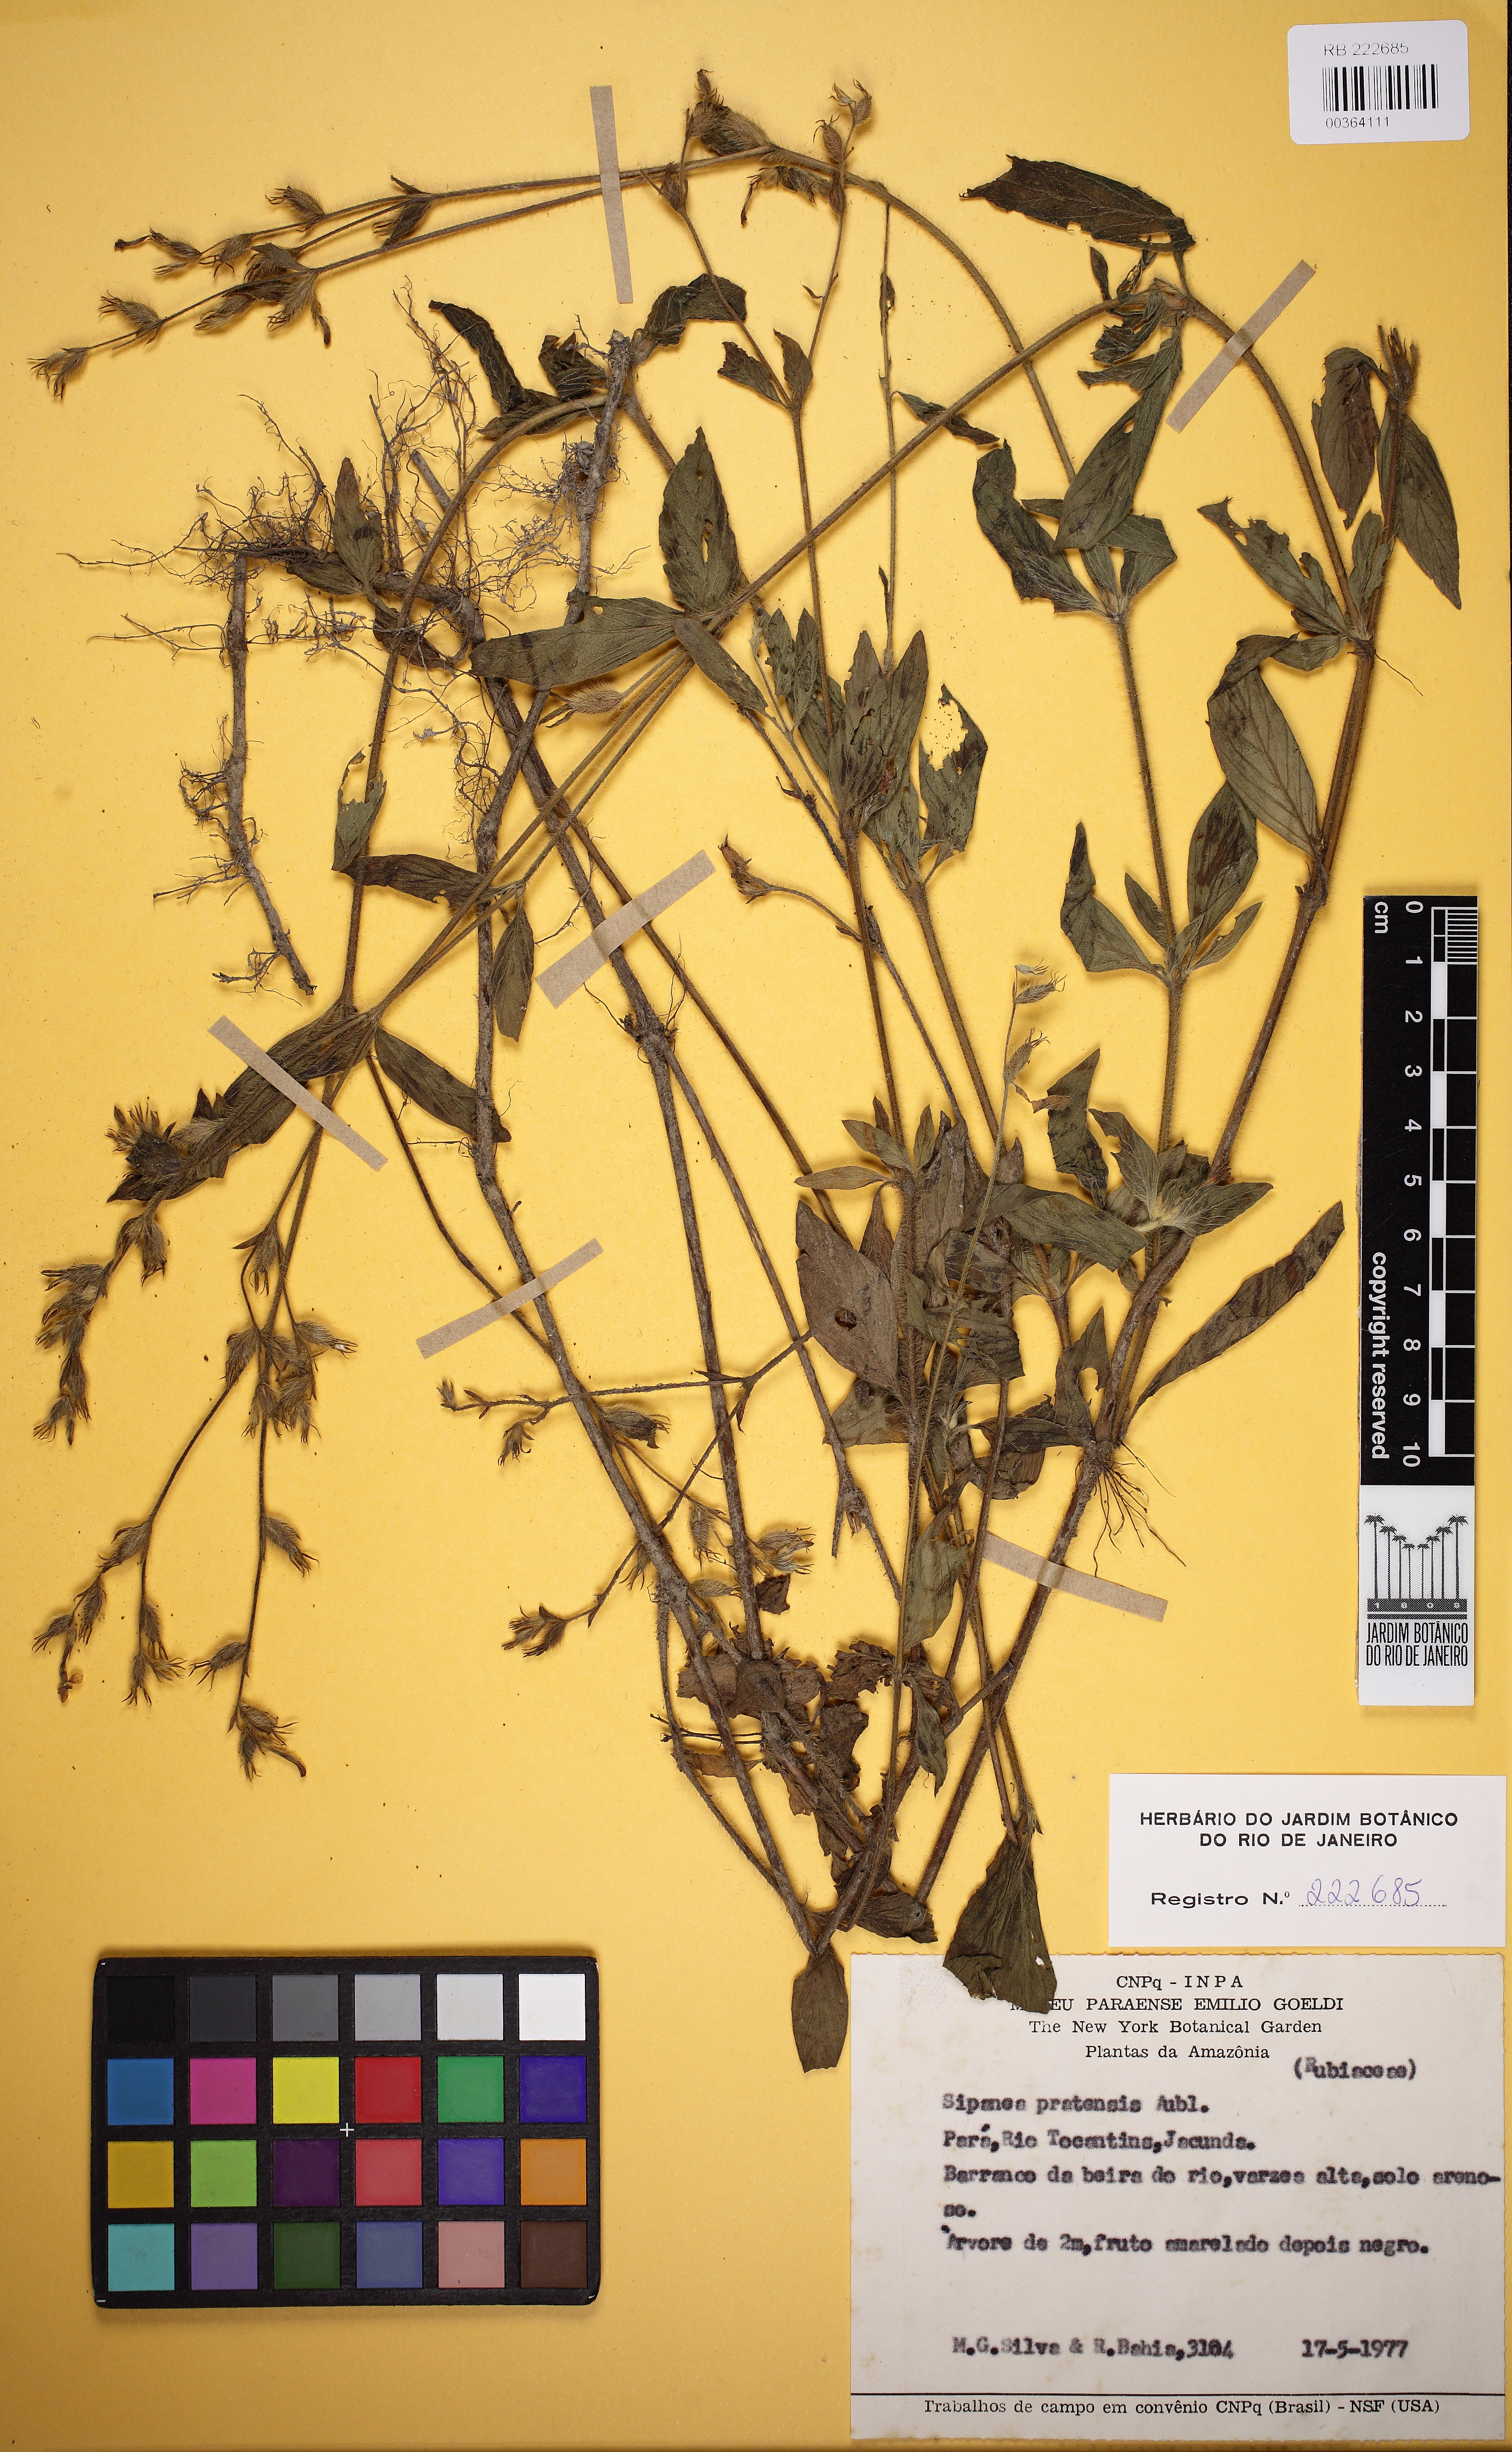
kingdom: Plantae
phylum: Tracheophyta
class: Magnoliopsida
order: Gentianales
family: Rubiaceae
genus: Sipanea
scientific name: Sipanea hispida
